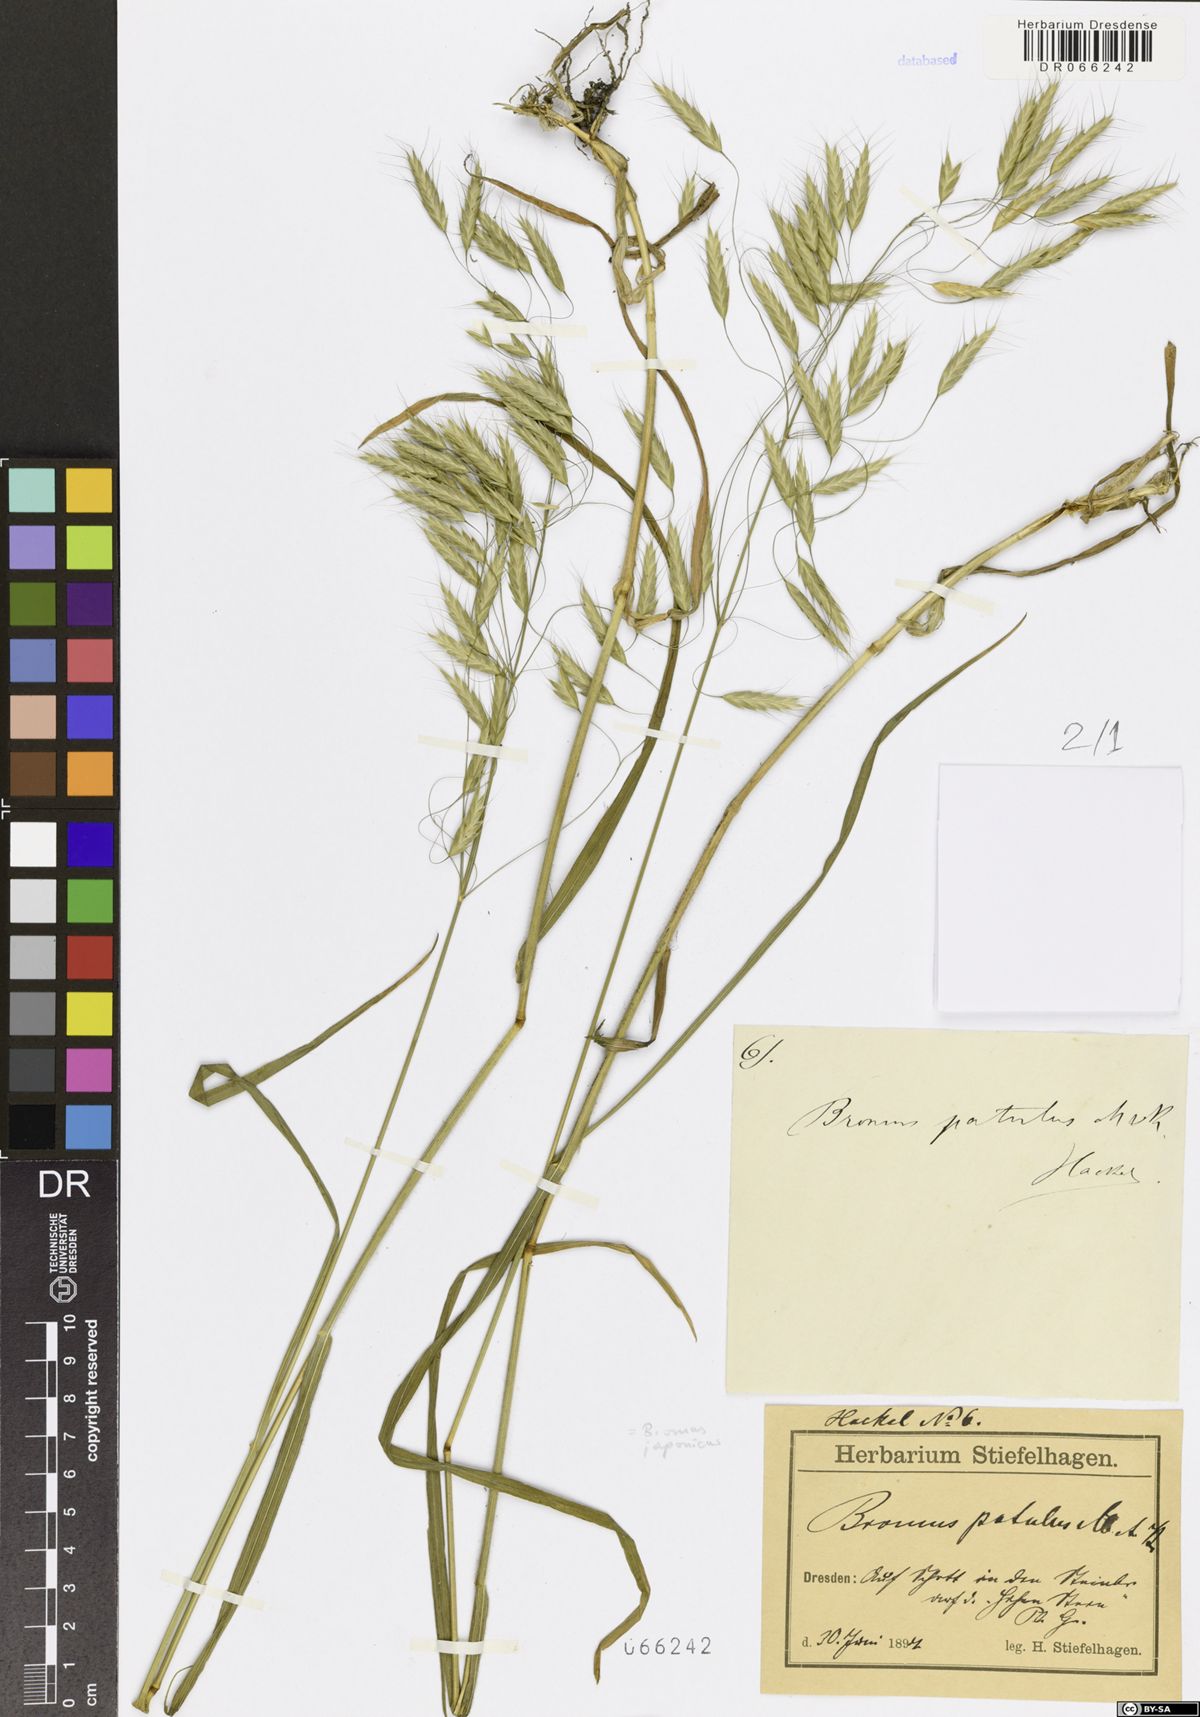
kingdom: Plantae
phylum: Tracheophyta
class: Liliopsida
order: Poales
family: Poaceae
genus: Bromus
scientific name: Bromus japonicus
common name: Japanese brome
